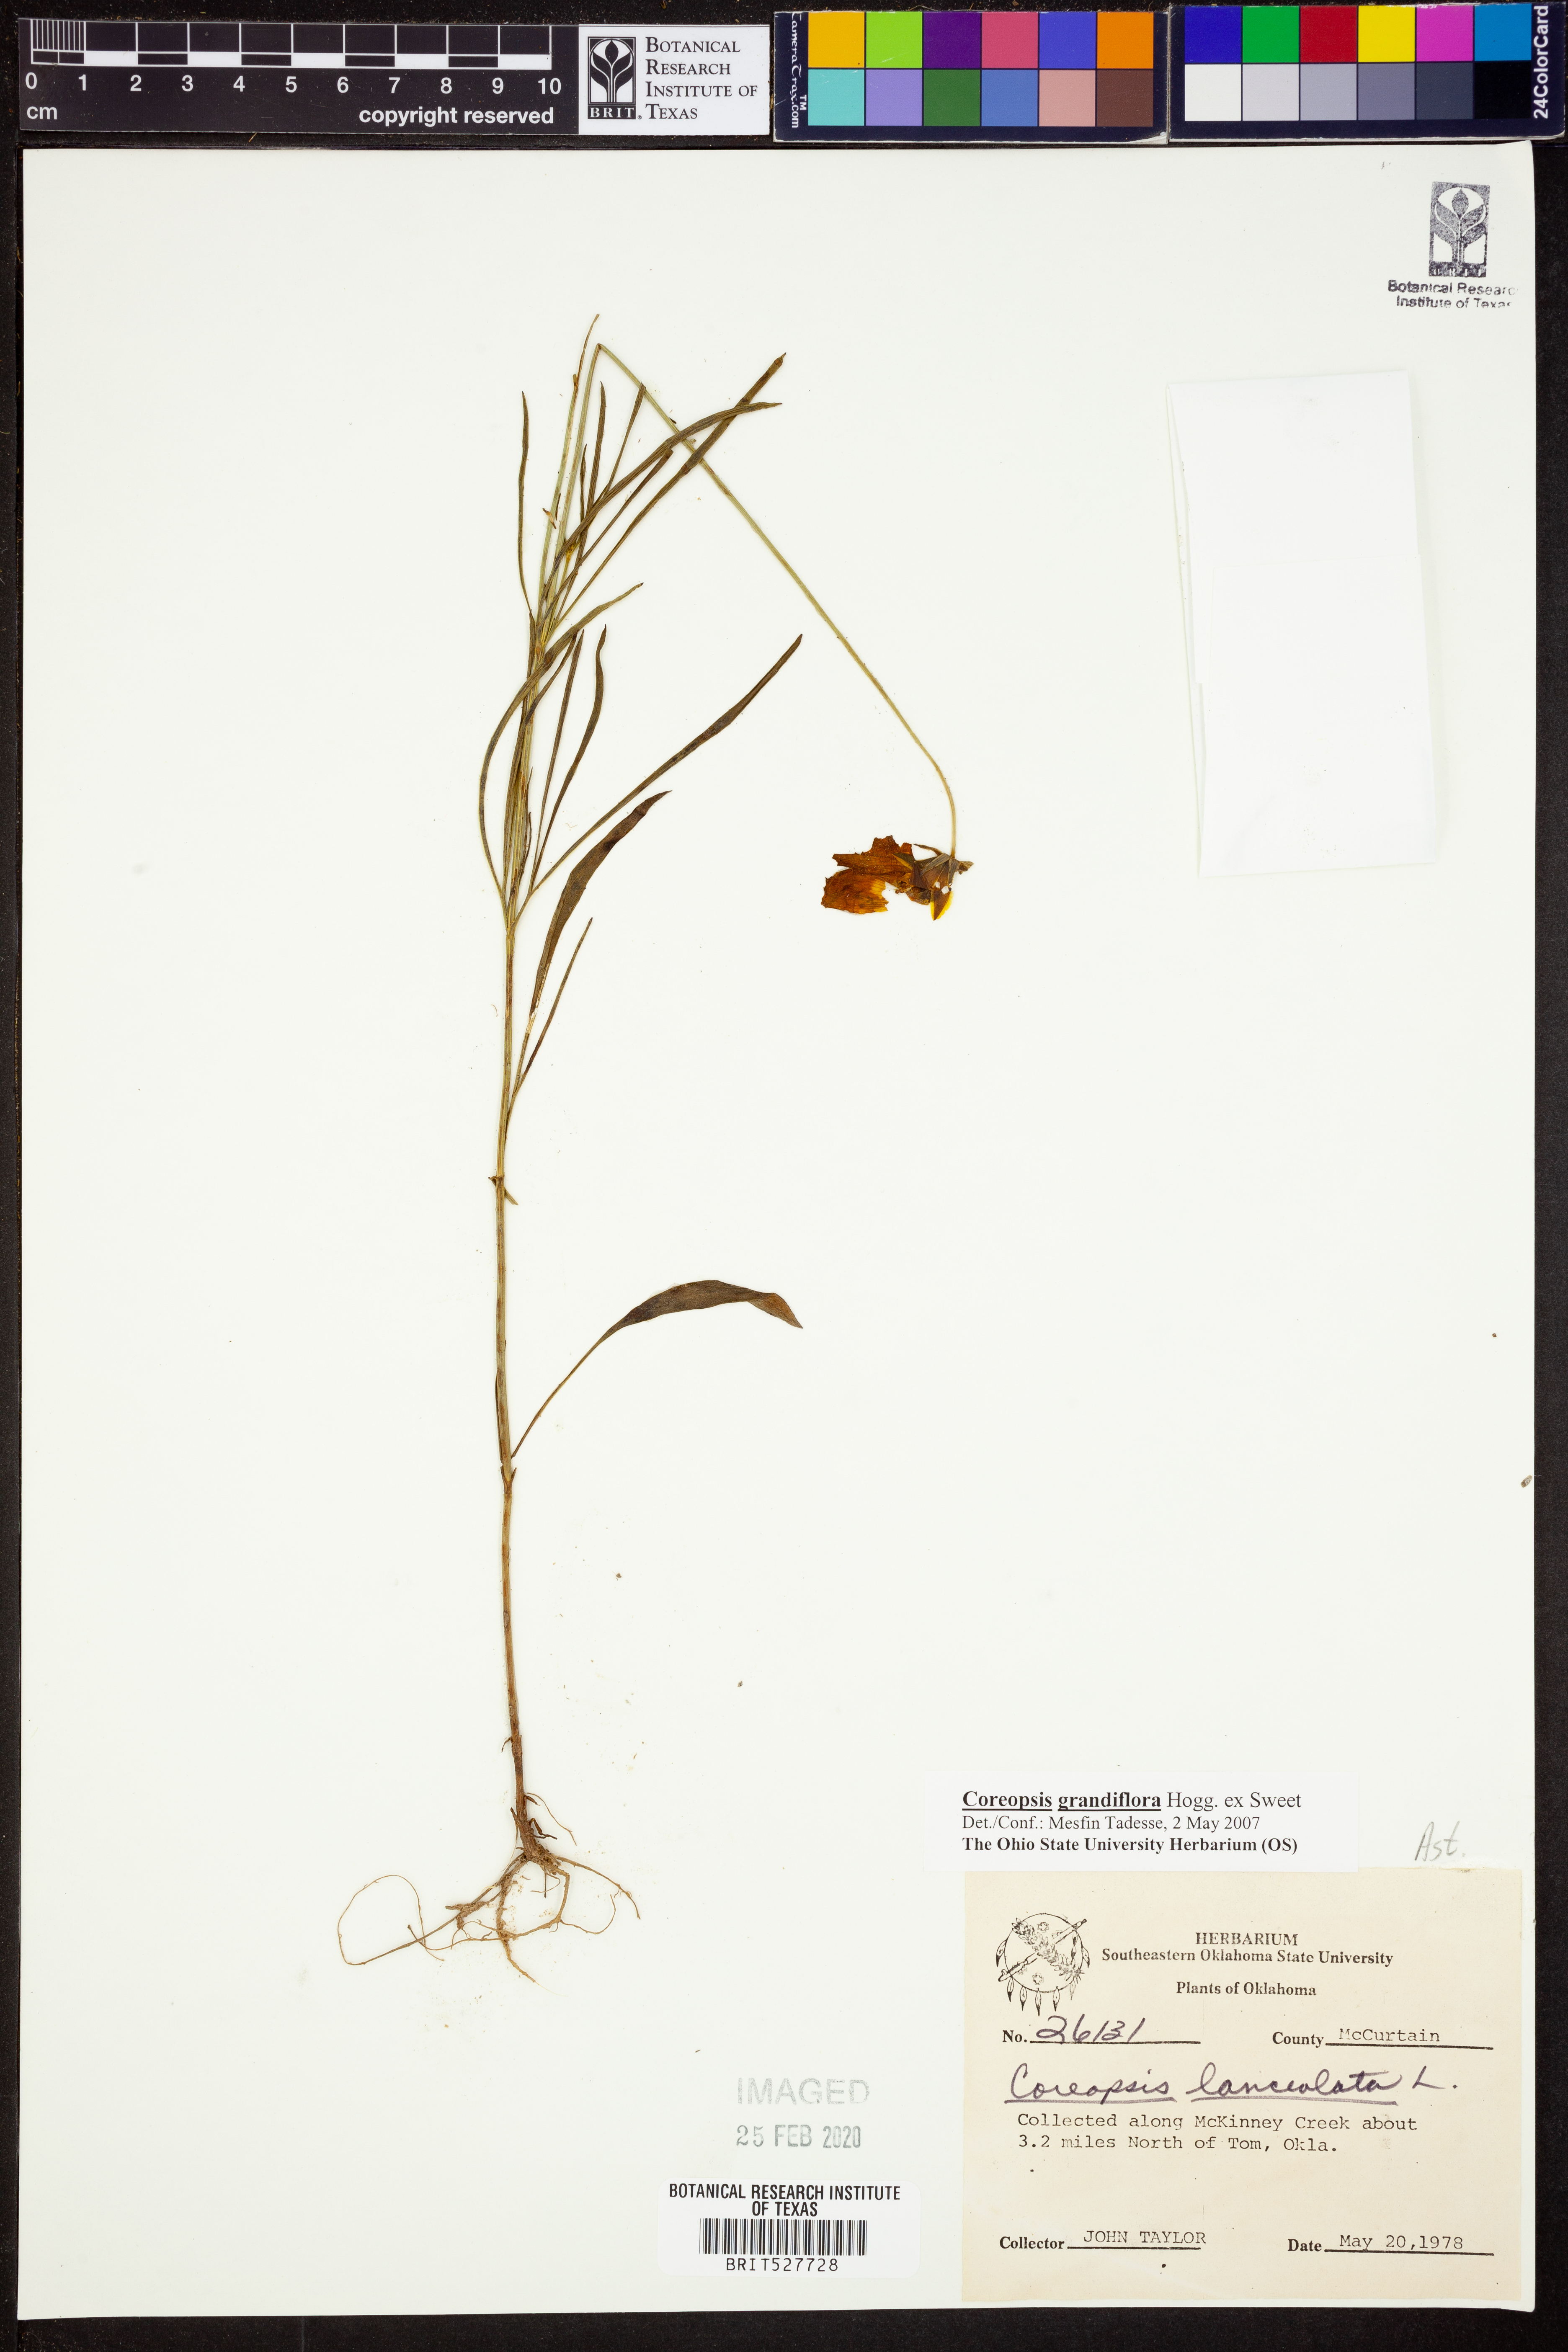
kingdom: Plantae
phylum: Tracheophyta
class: Magnoliopsida
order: Asterales
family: Asteraceae
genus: Coreopsis
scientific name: Coreopsis grandiflora
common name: Large-flowered tickseed
